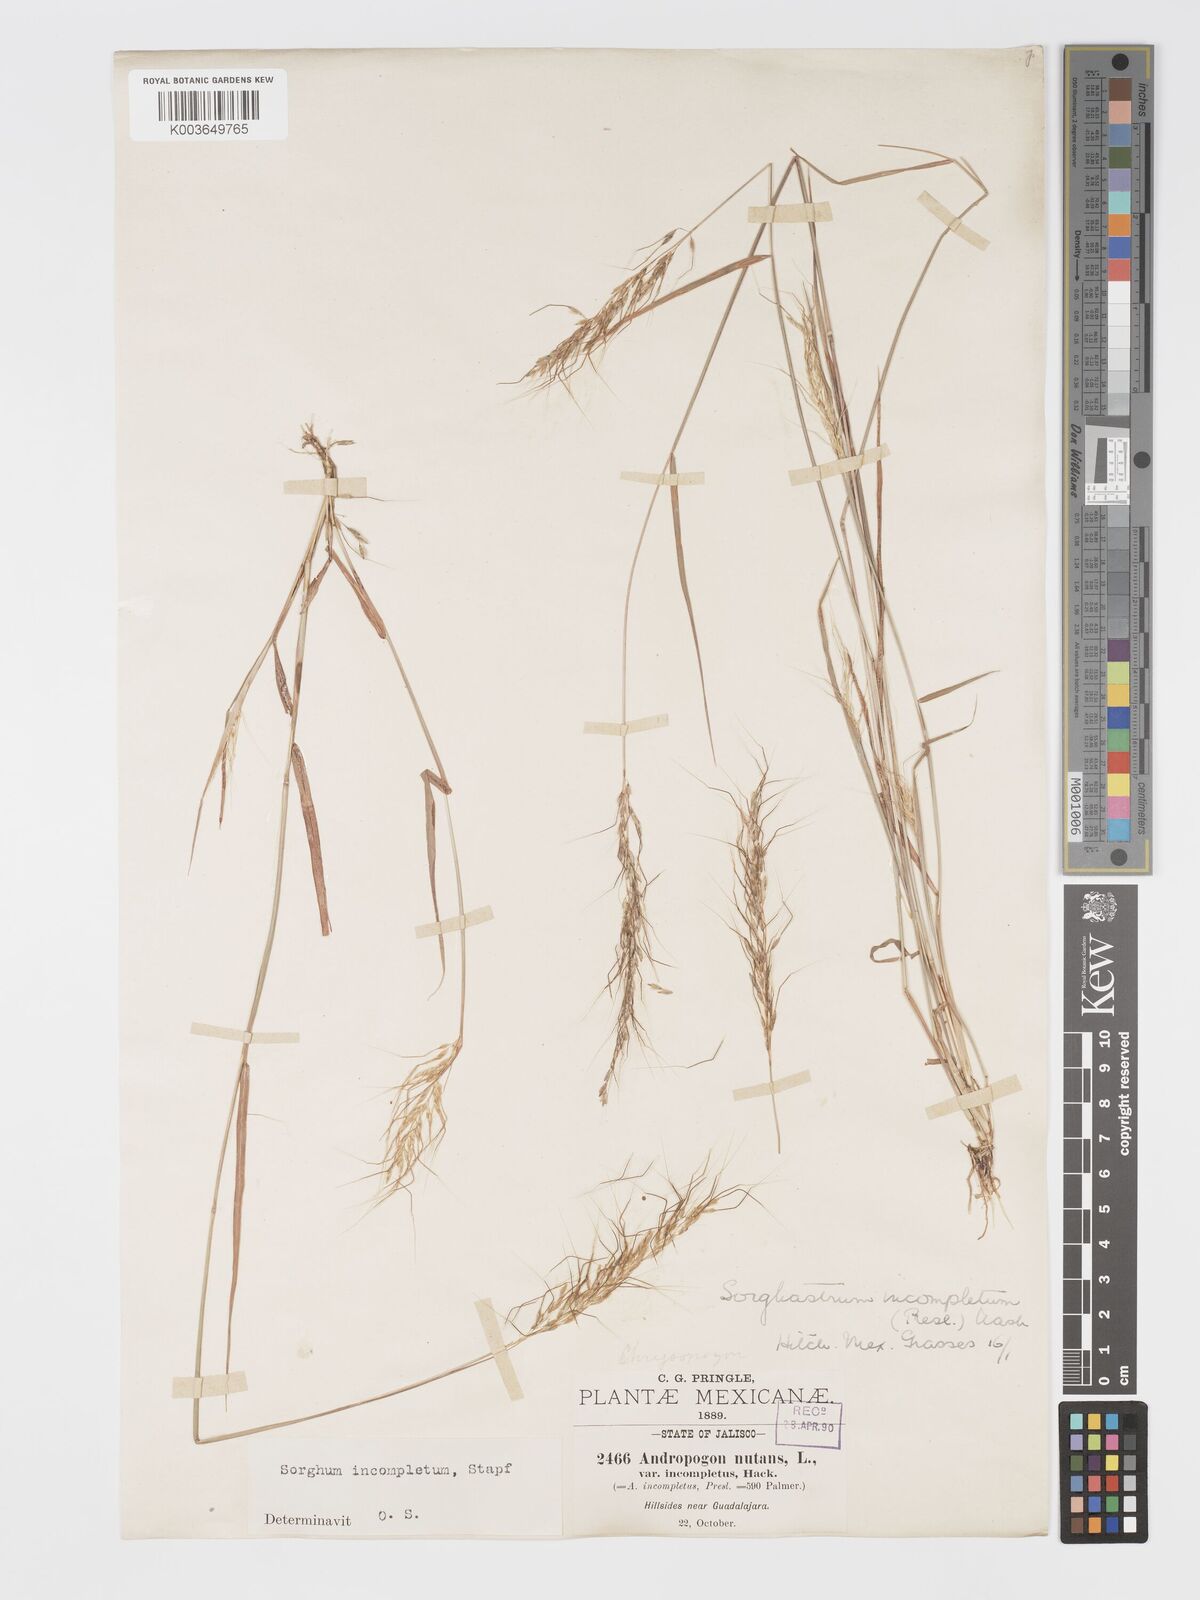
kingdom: Plantae
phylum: Tracheophyta
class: Liliopsida
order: Poales
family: Poaceae
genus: Sorghastrum
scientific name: Sorghastrum incompletum
